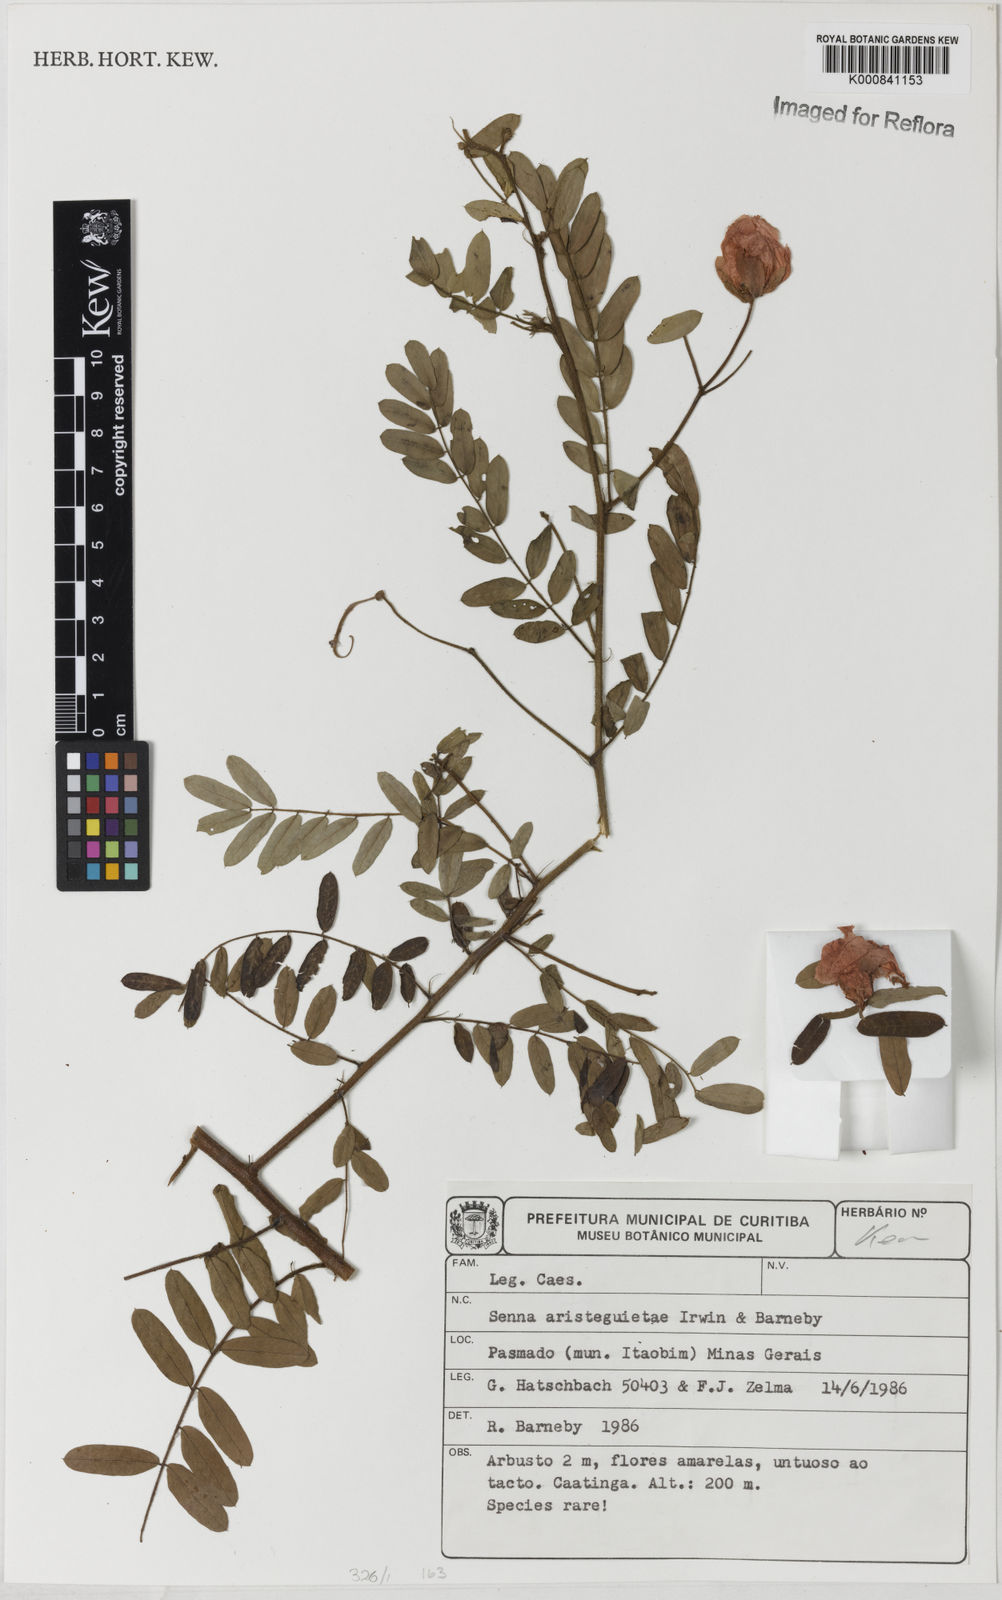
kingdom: Plantae
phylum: Tracheophyta
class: Magnoliopsida
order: Fabales
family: Fabaceae
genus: Senna
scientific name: Senna aristeguietae
